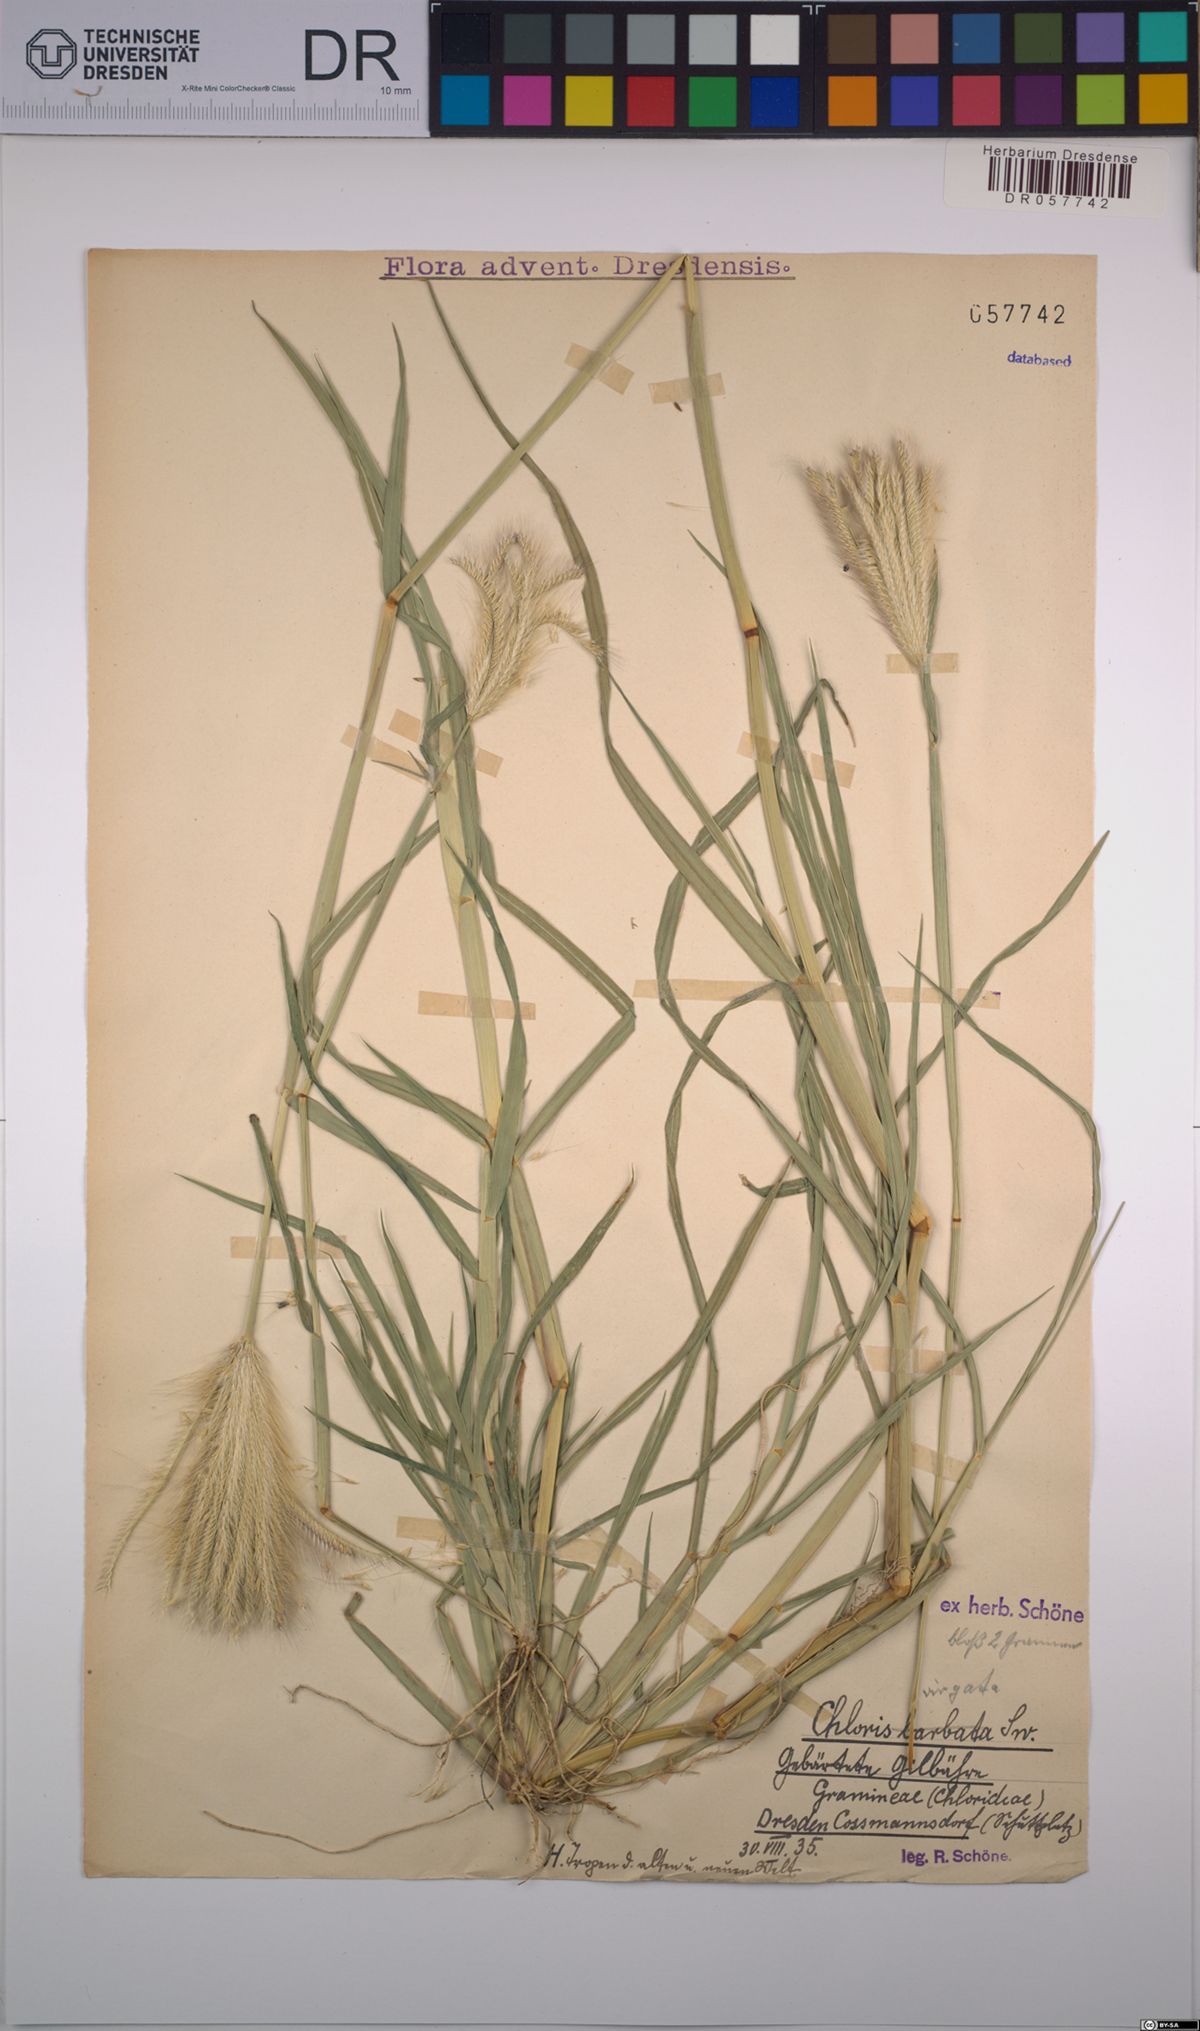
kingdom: Plantae
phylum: Tracheophyta
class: Liliopsida
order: Poales
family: Poaceae
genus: Chloris
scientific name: Chloris virgata
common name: Feathery rhodes-grass
